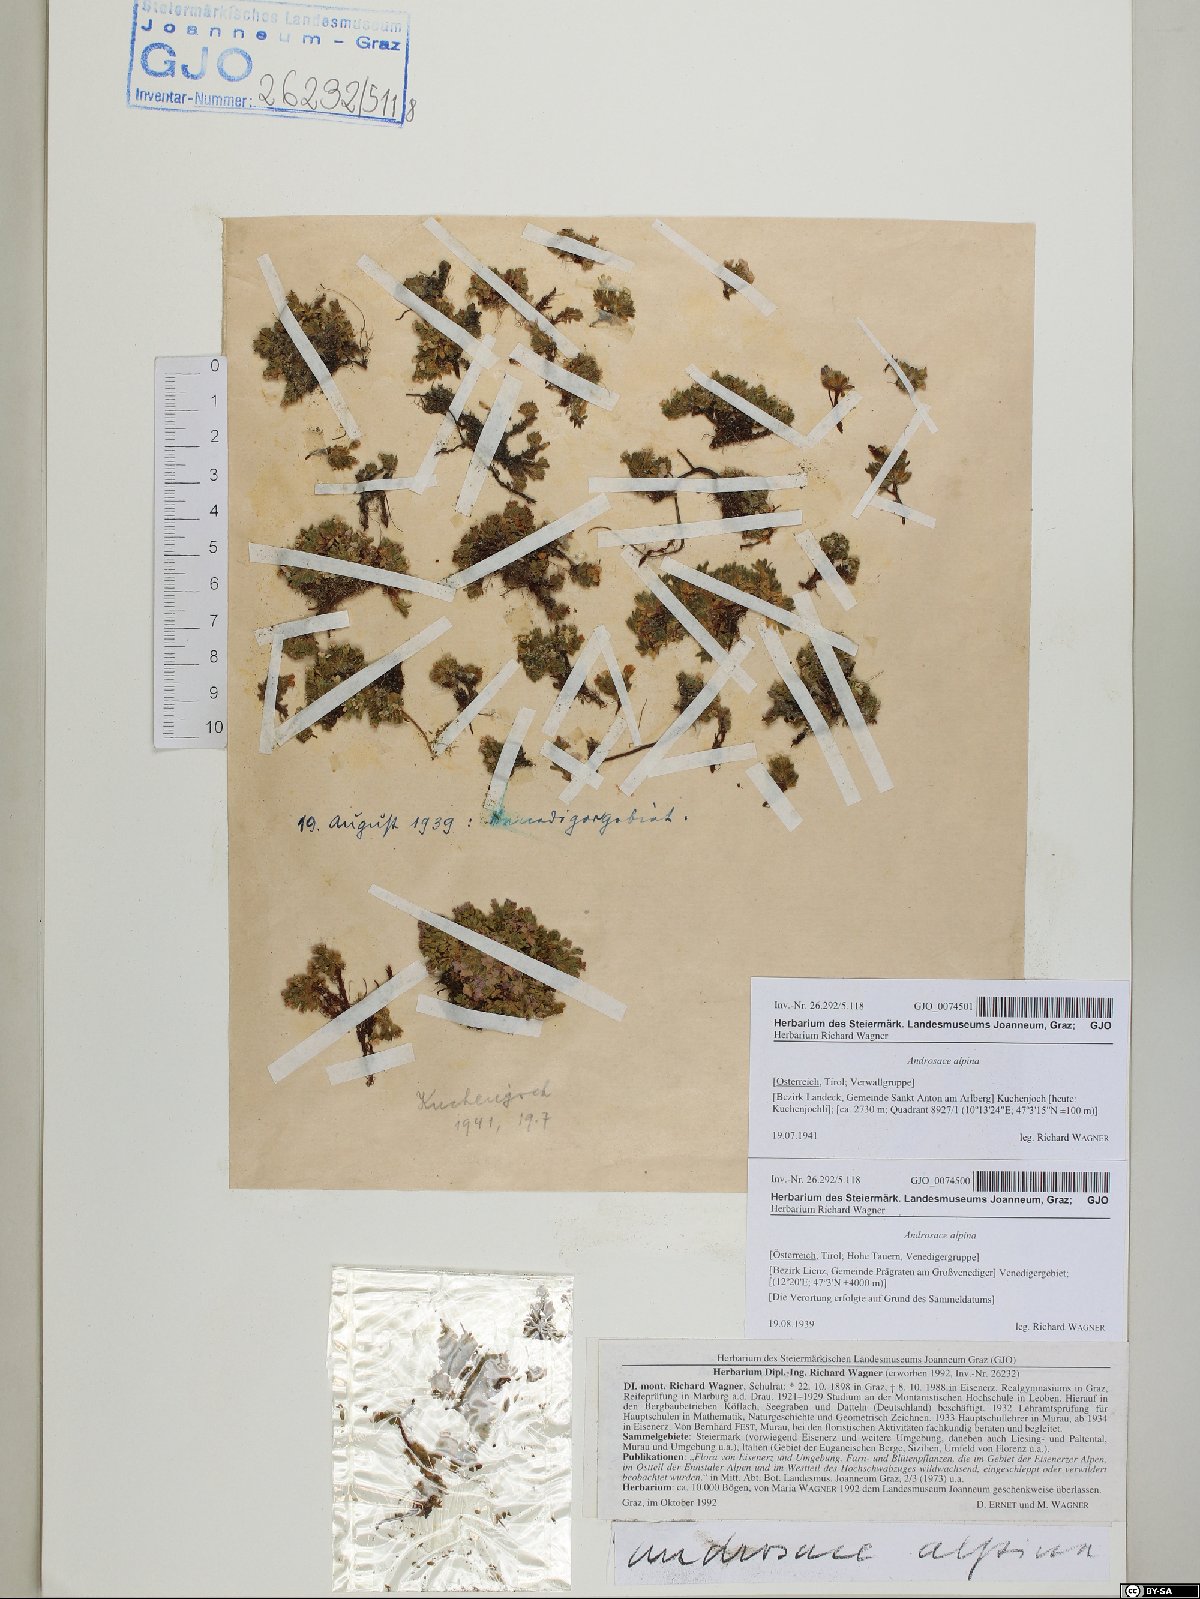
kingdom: Plantae
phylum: Tracheophyta
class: Magnoliopsida
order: Ericales
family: Primulaceae
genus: Androsace
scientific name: Androsace alpina
